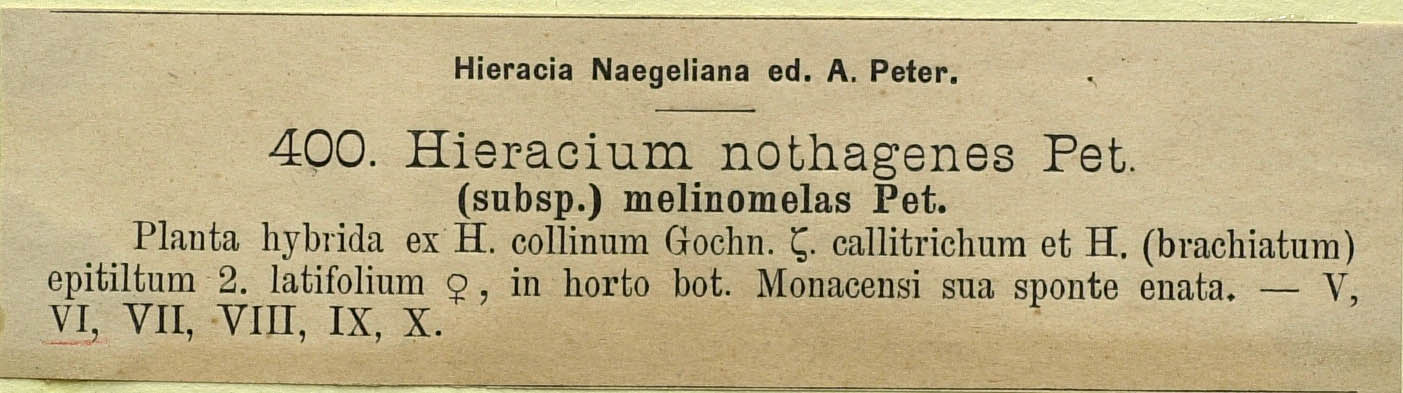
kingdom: Plantae
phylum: Tracheophyta
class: Magnoliopsida
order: Asterales
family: Asteraceae
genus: Pilosella
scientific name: Pilosella melinomelas
